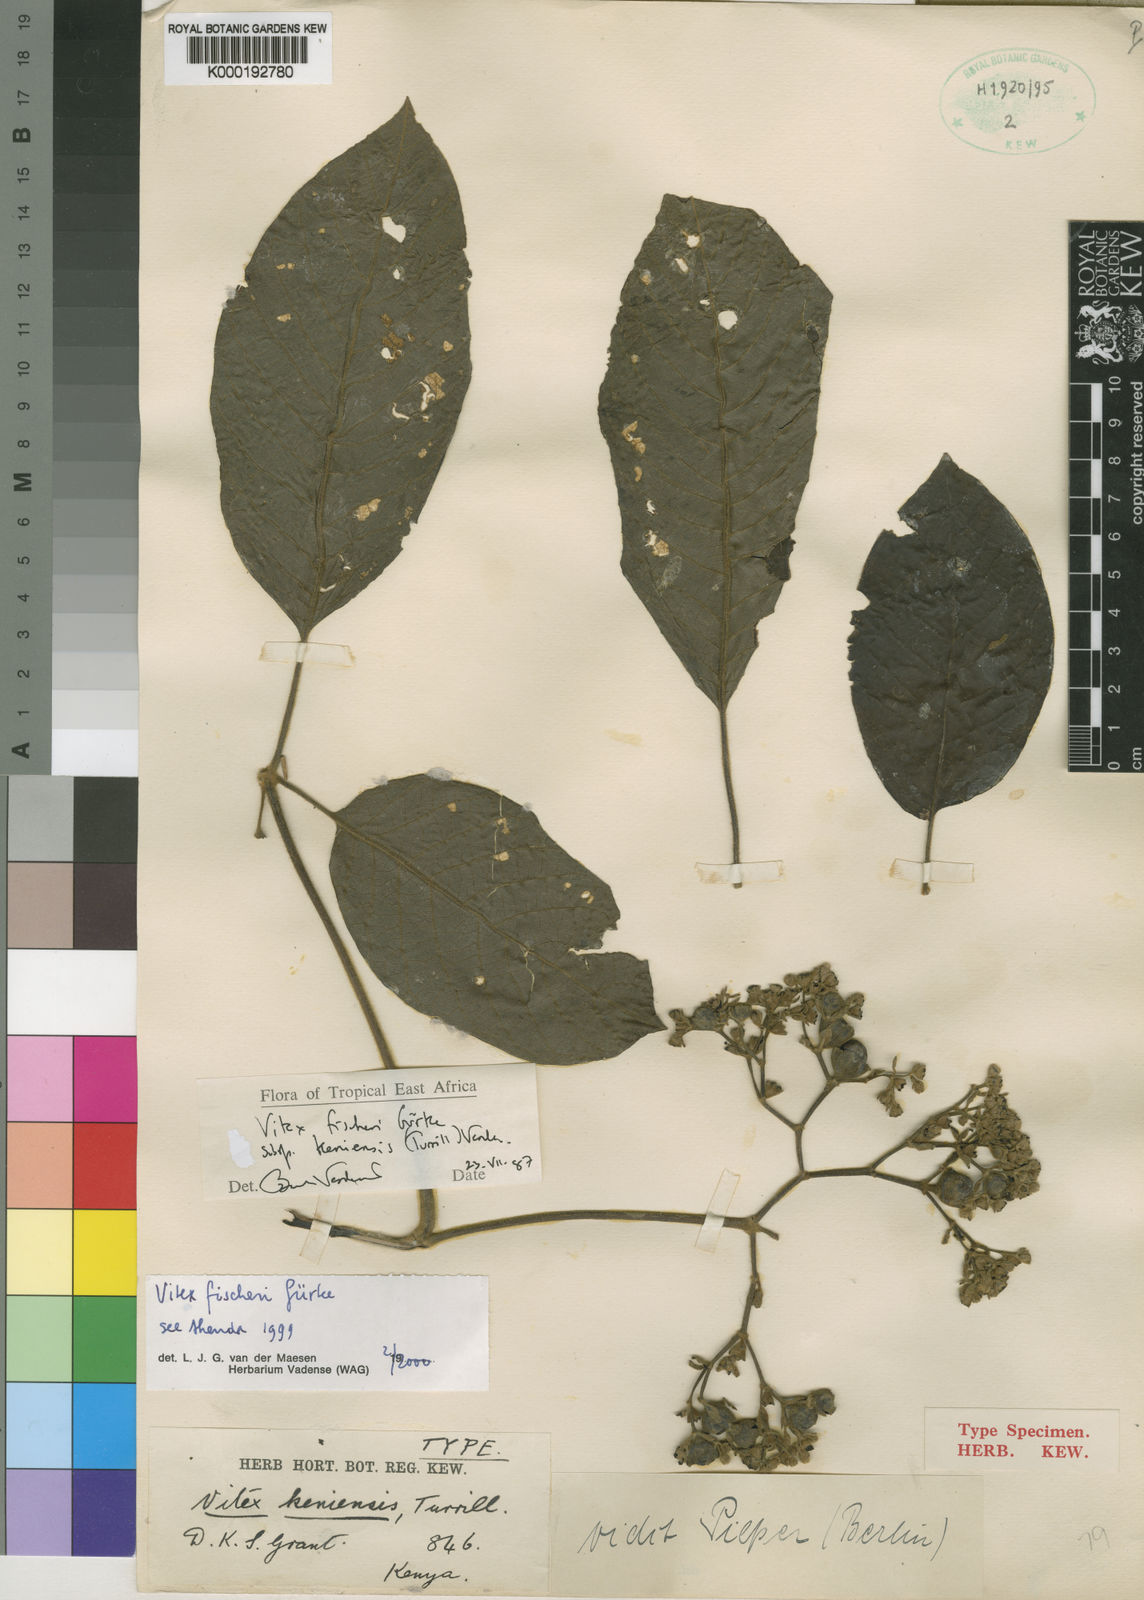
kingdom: Plantae
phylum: Tracheophyta
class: Magnoliopsida
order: Lamiales
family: Lamiaceae
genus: Vitex
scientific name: Vitex
